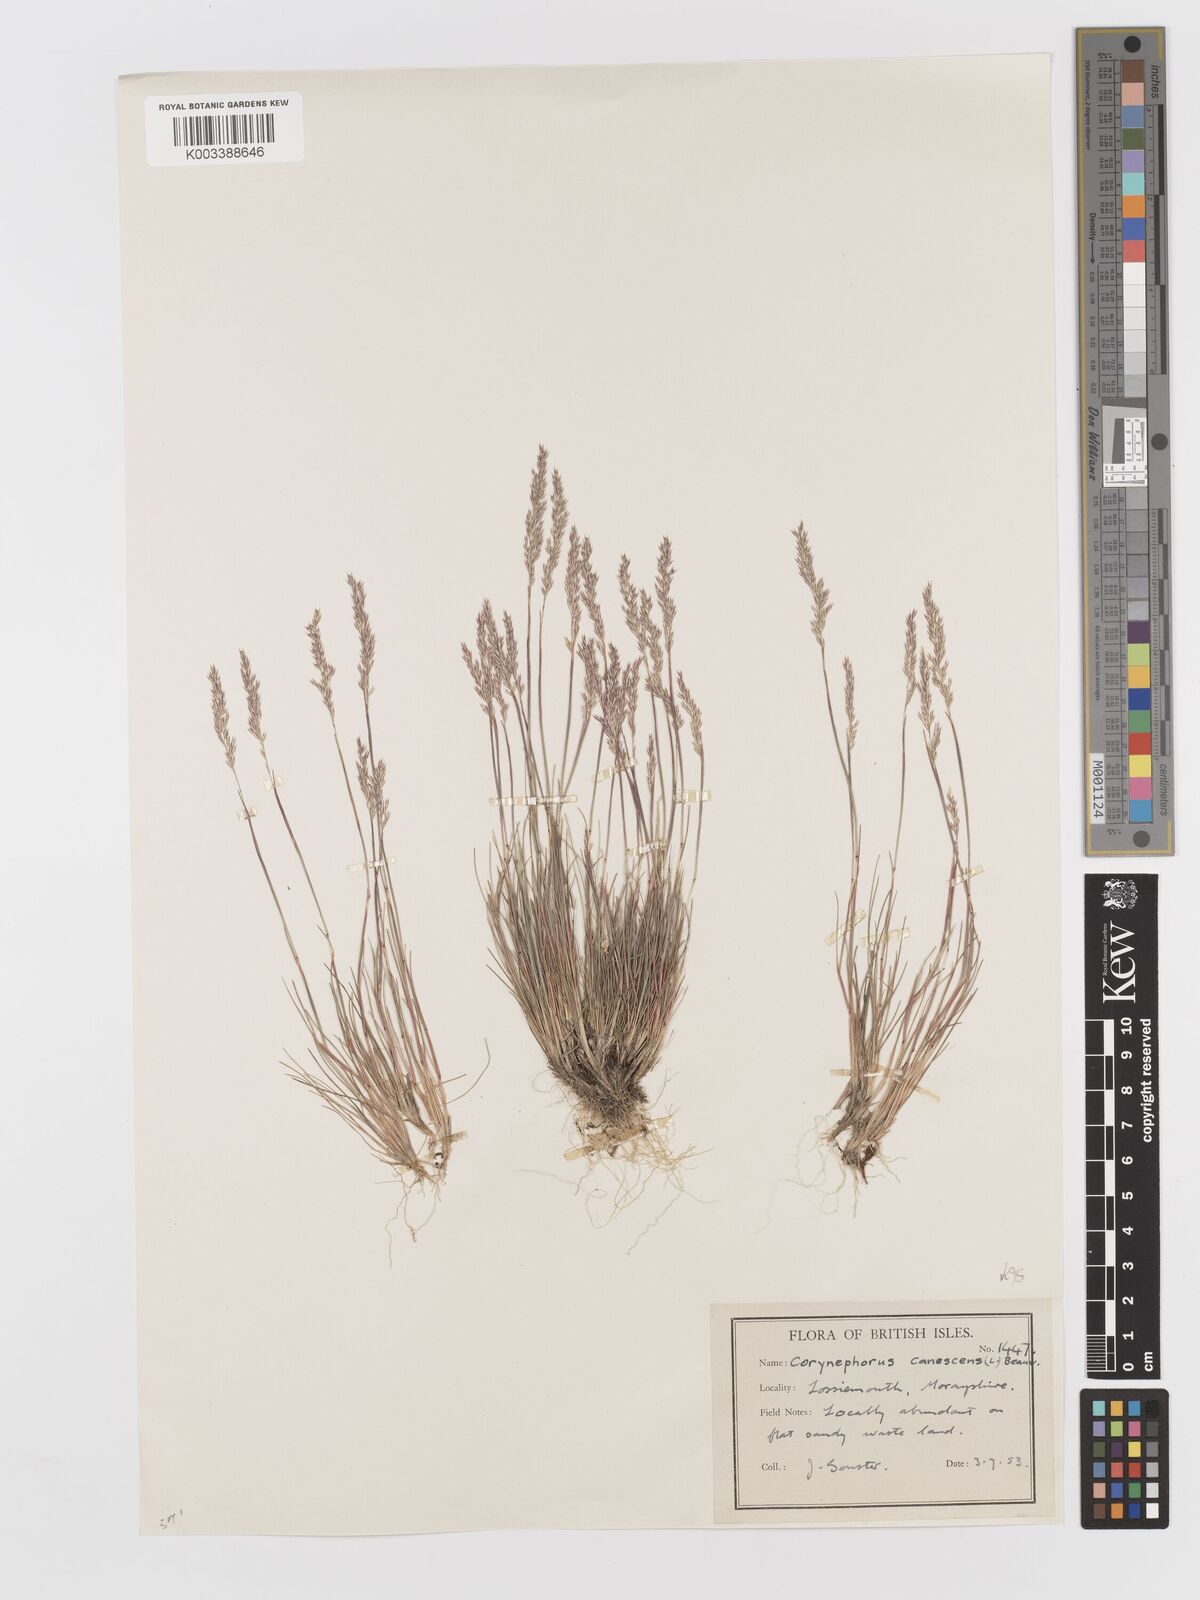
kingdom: Plantae
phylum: Tracheophyta
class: Liliopsida
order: Poales
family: Poaceae
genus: Corynephorus
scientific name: Corynephorus canescens
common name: Grey hair-grass
